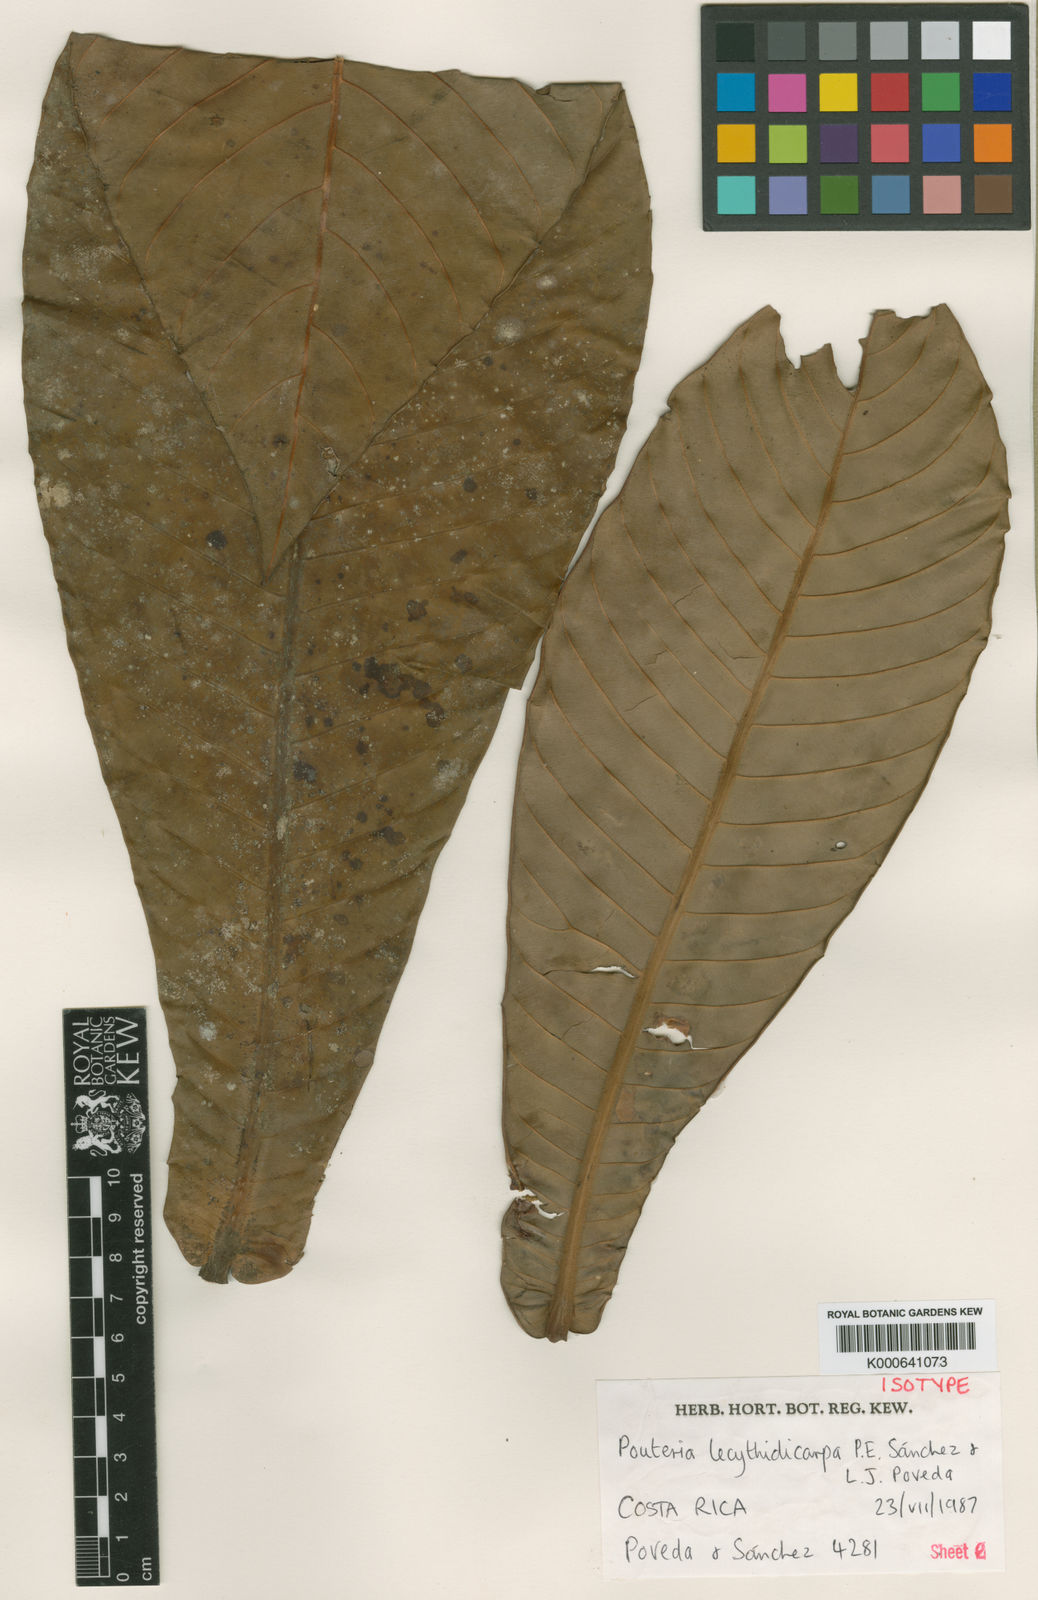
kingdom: Plantae
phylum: Tracheophyta
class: Magnoliopsida
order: Ericales
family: Sapotaceae
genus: Pouteria
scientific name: Pouteria
